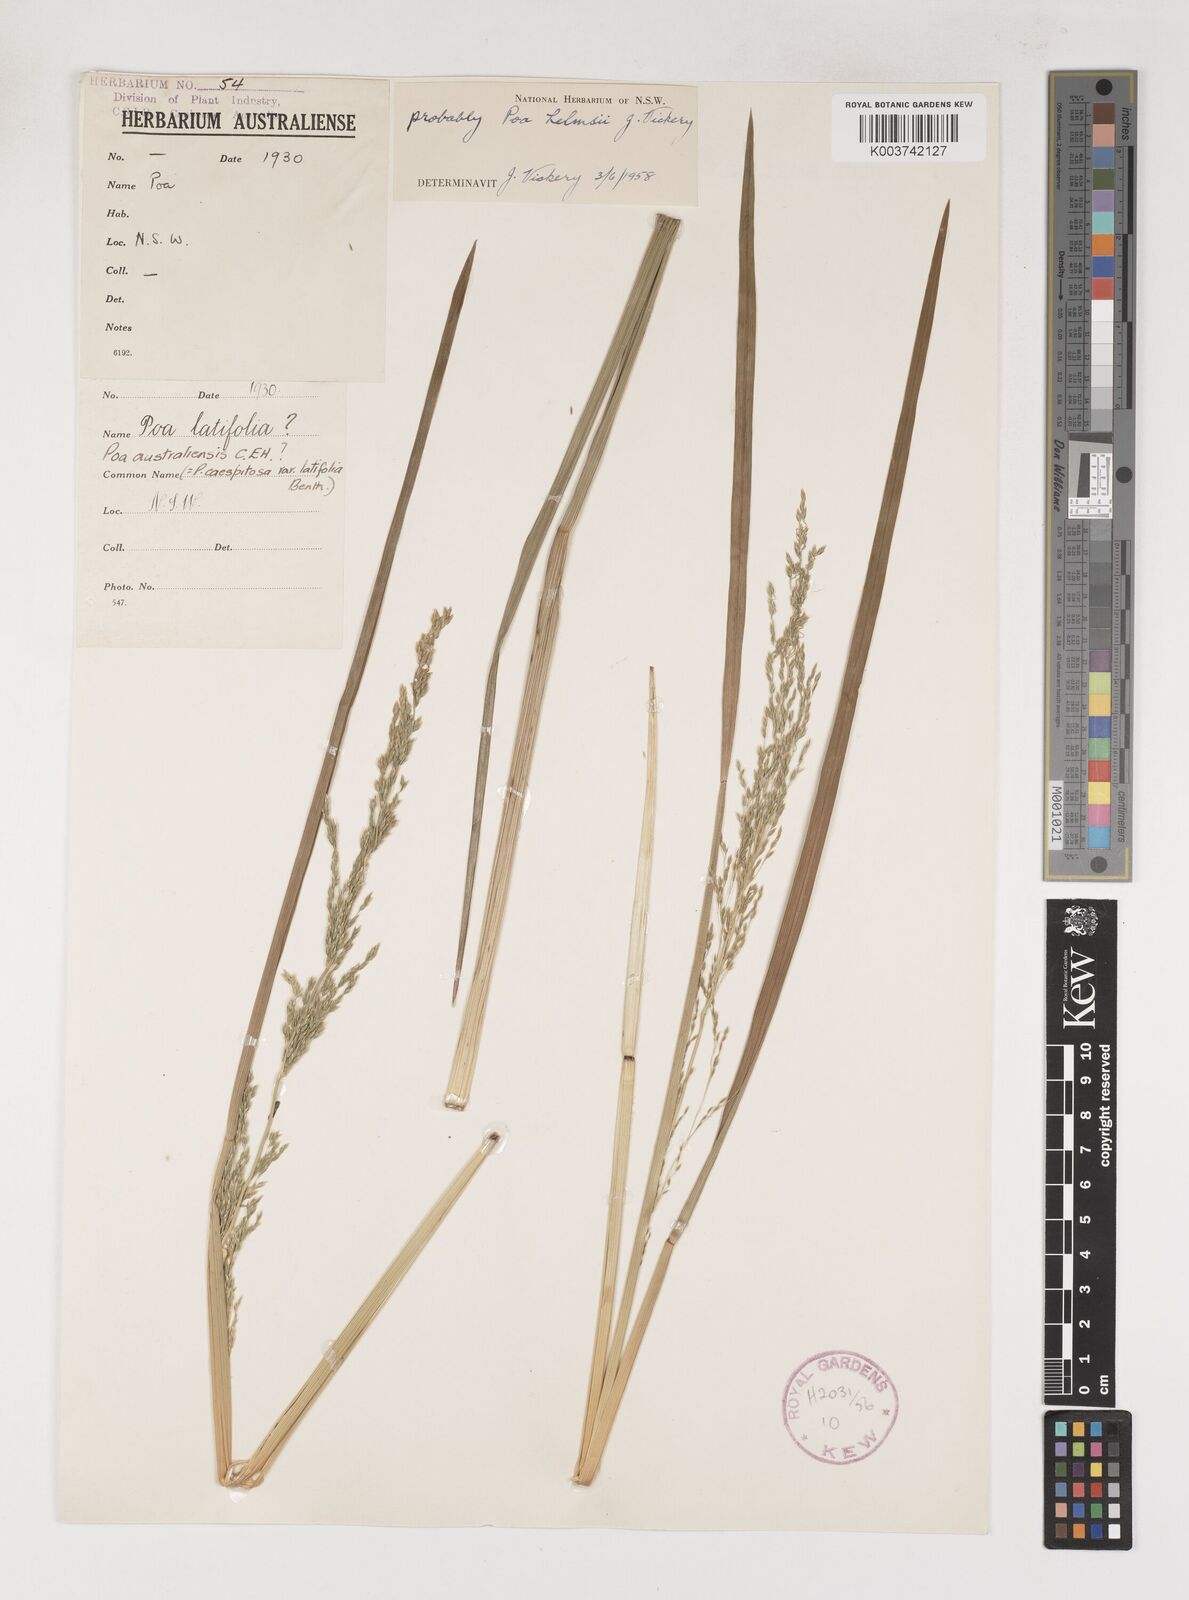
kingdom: Plantae
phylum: Tracheophyta
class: Liliopsida
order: Poales
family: Poaceae
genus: Poa
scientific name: Poa helmsii
